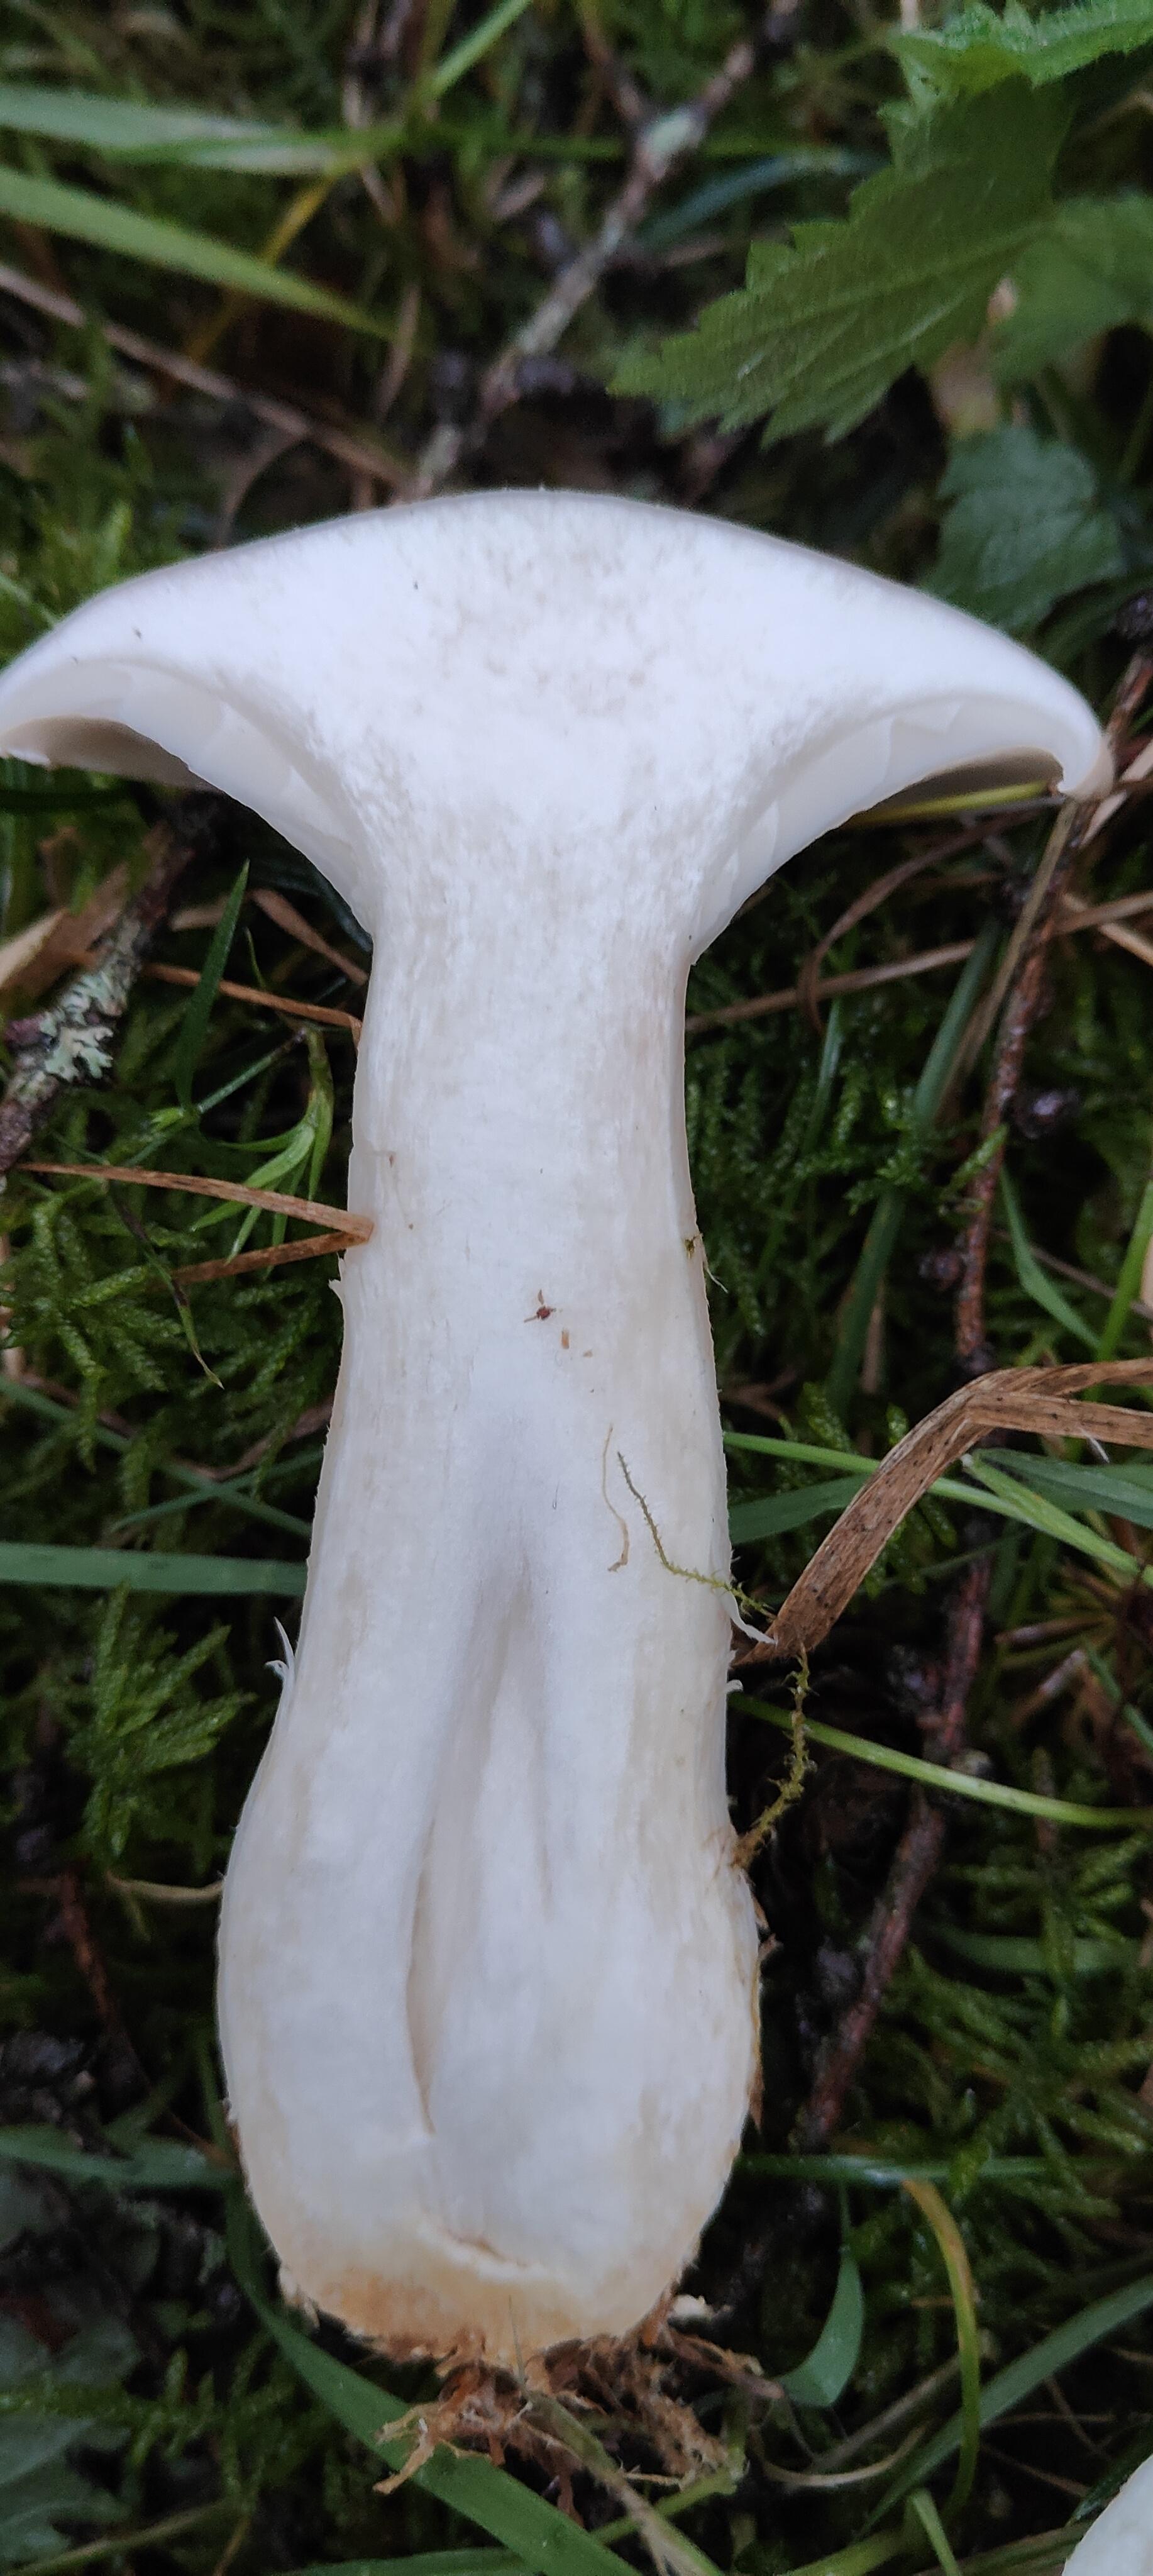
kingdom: Fungi
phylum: Basidiomycota
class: Agaricomycetes
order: Agaricales
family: Tricholomataceae
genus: Clitocybe
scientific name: Clitocybe nebularis
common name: tåge-tragthat
